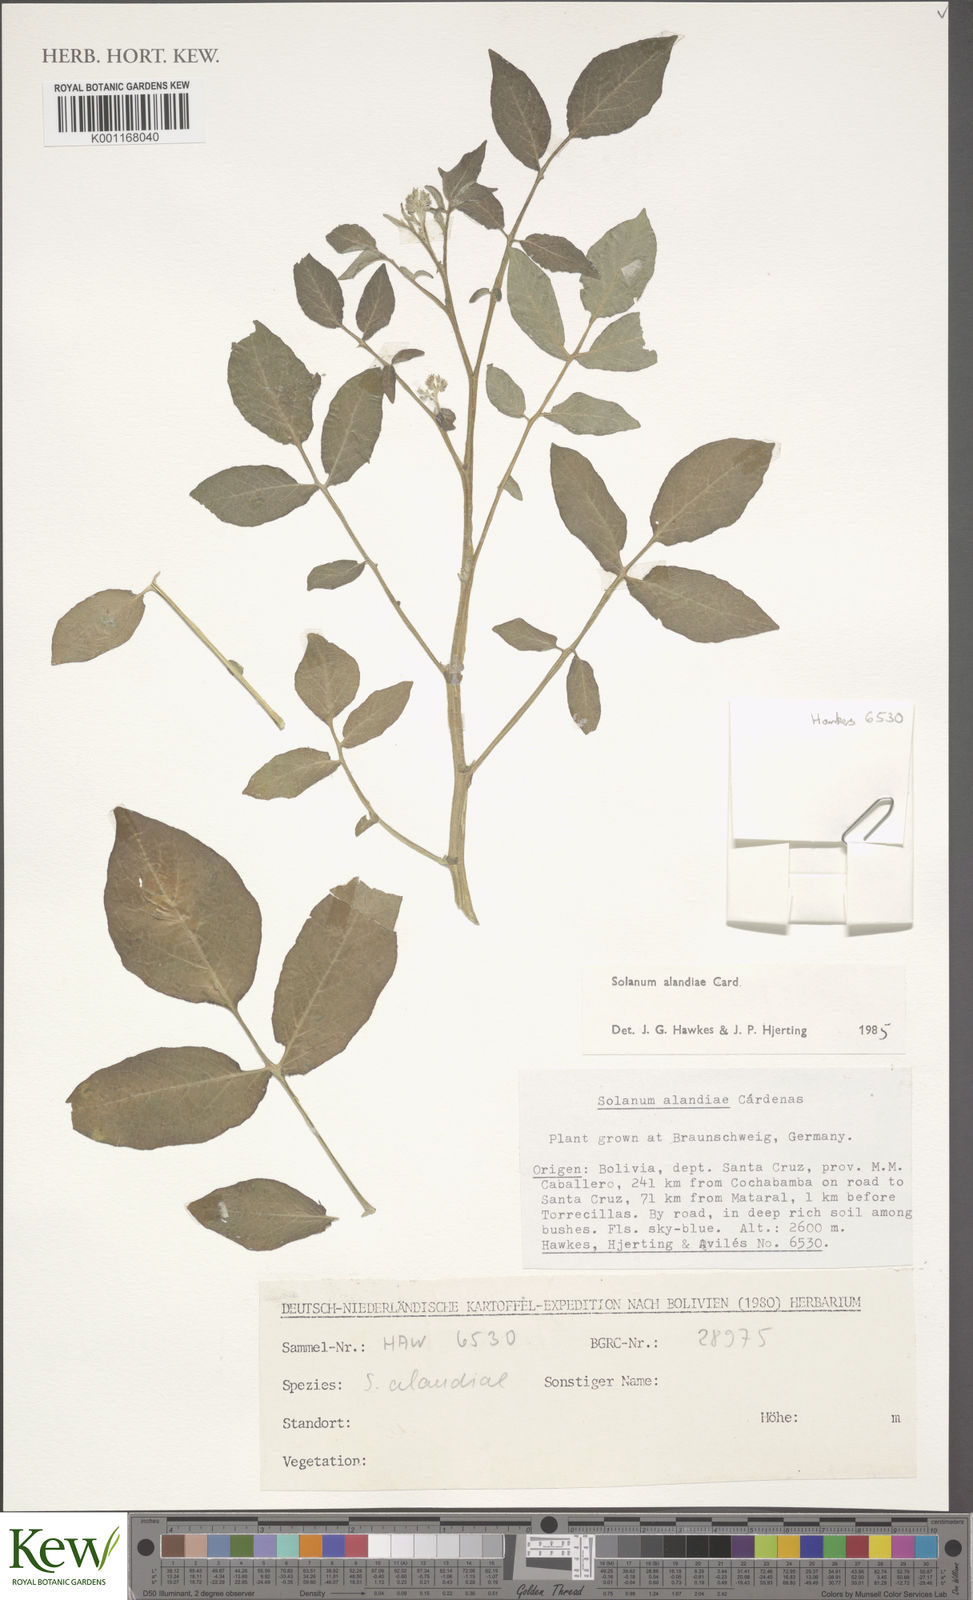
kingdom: Plantae
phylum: Tracheophyta
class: Magnoliopsida
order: Solanales
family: Solanaceae
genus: Solanum
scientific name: Solanum
